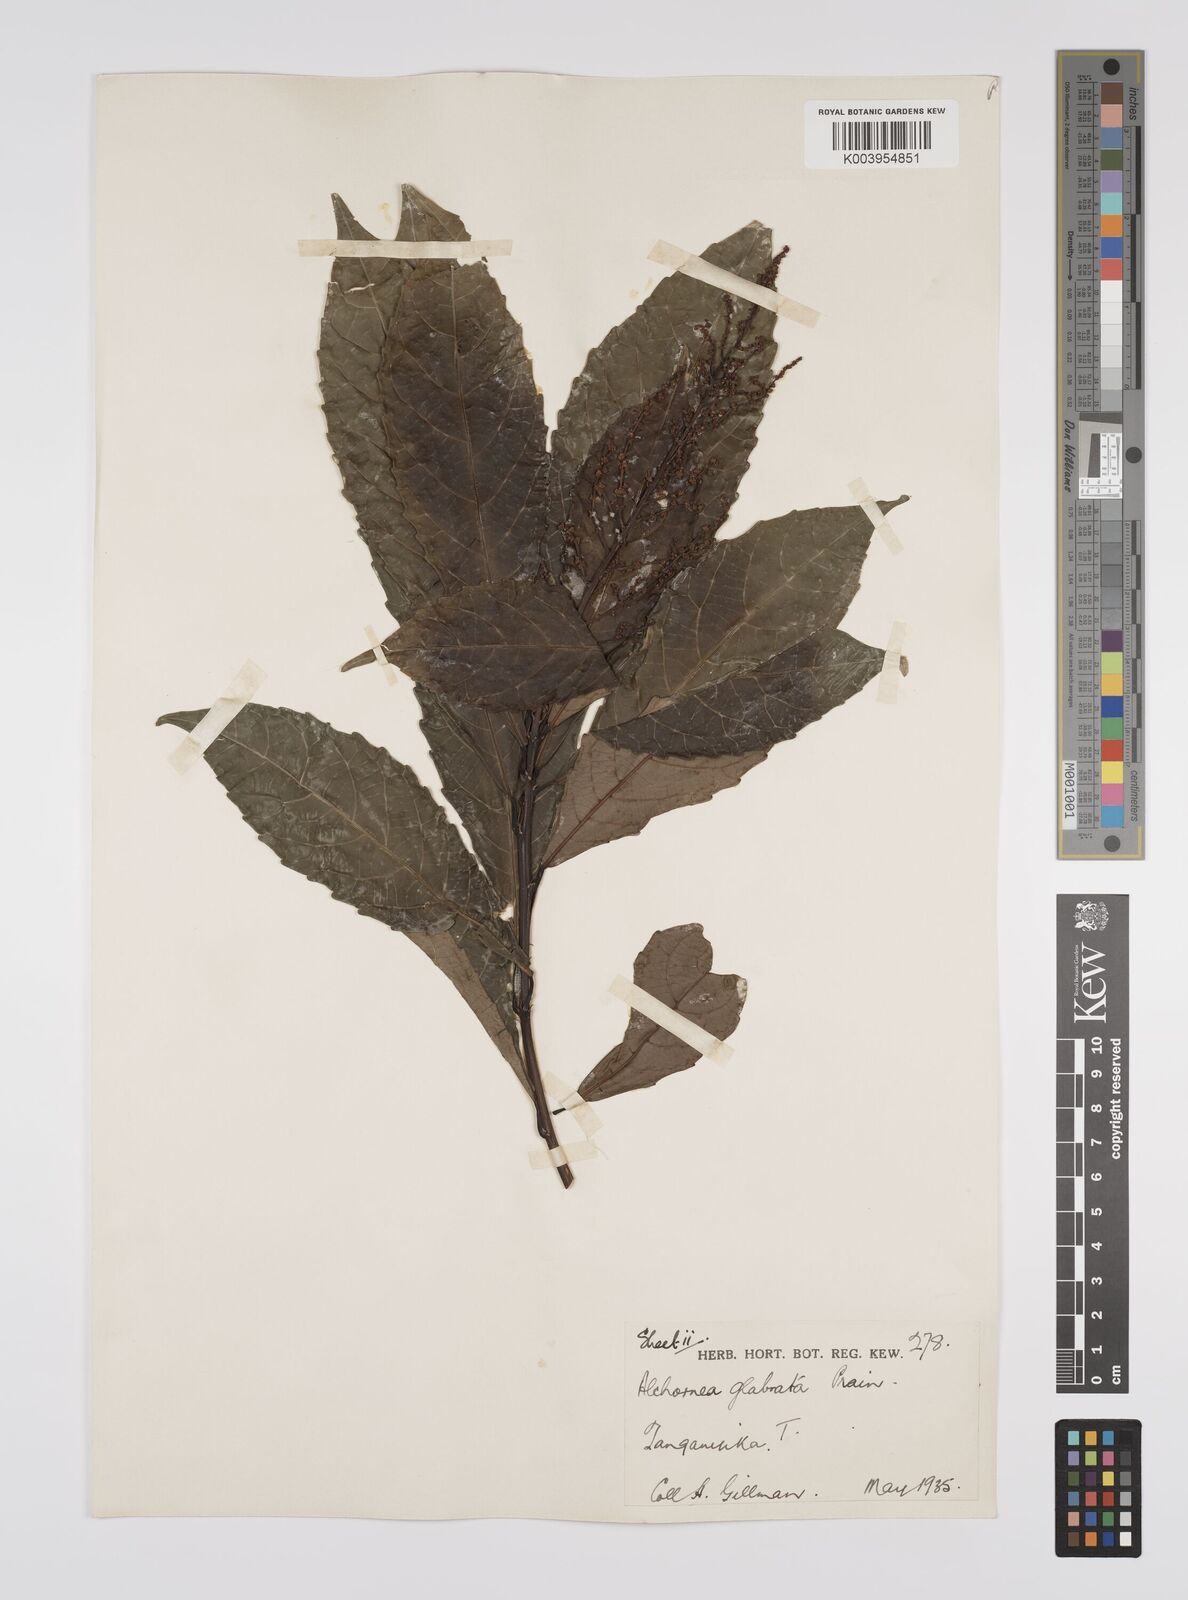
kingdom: Plantae
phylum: Tracheophyta
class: Magnoliopsida
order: Malpighiales
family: Euphorbiaceae
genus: Alchornea
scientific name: Alchornea hirtella
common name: Forest bead-string
